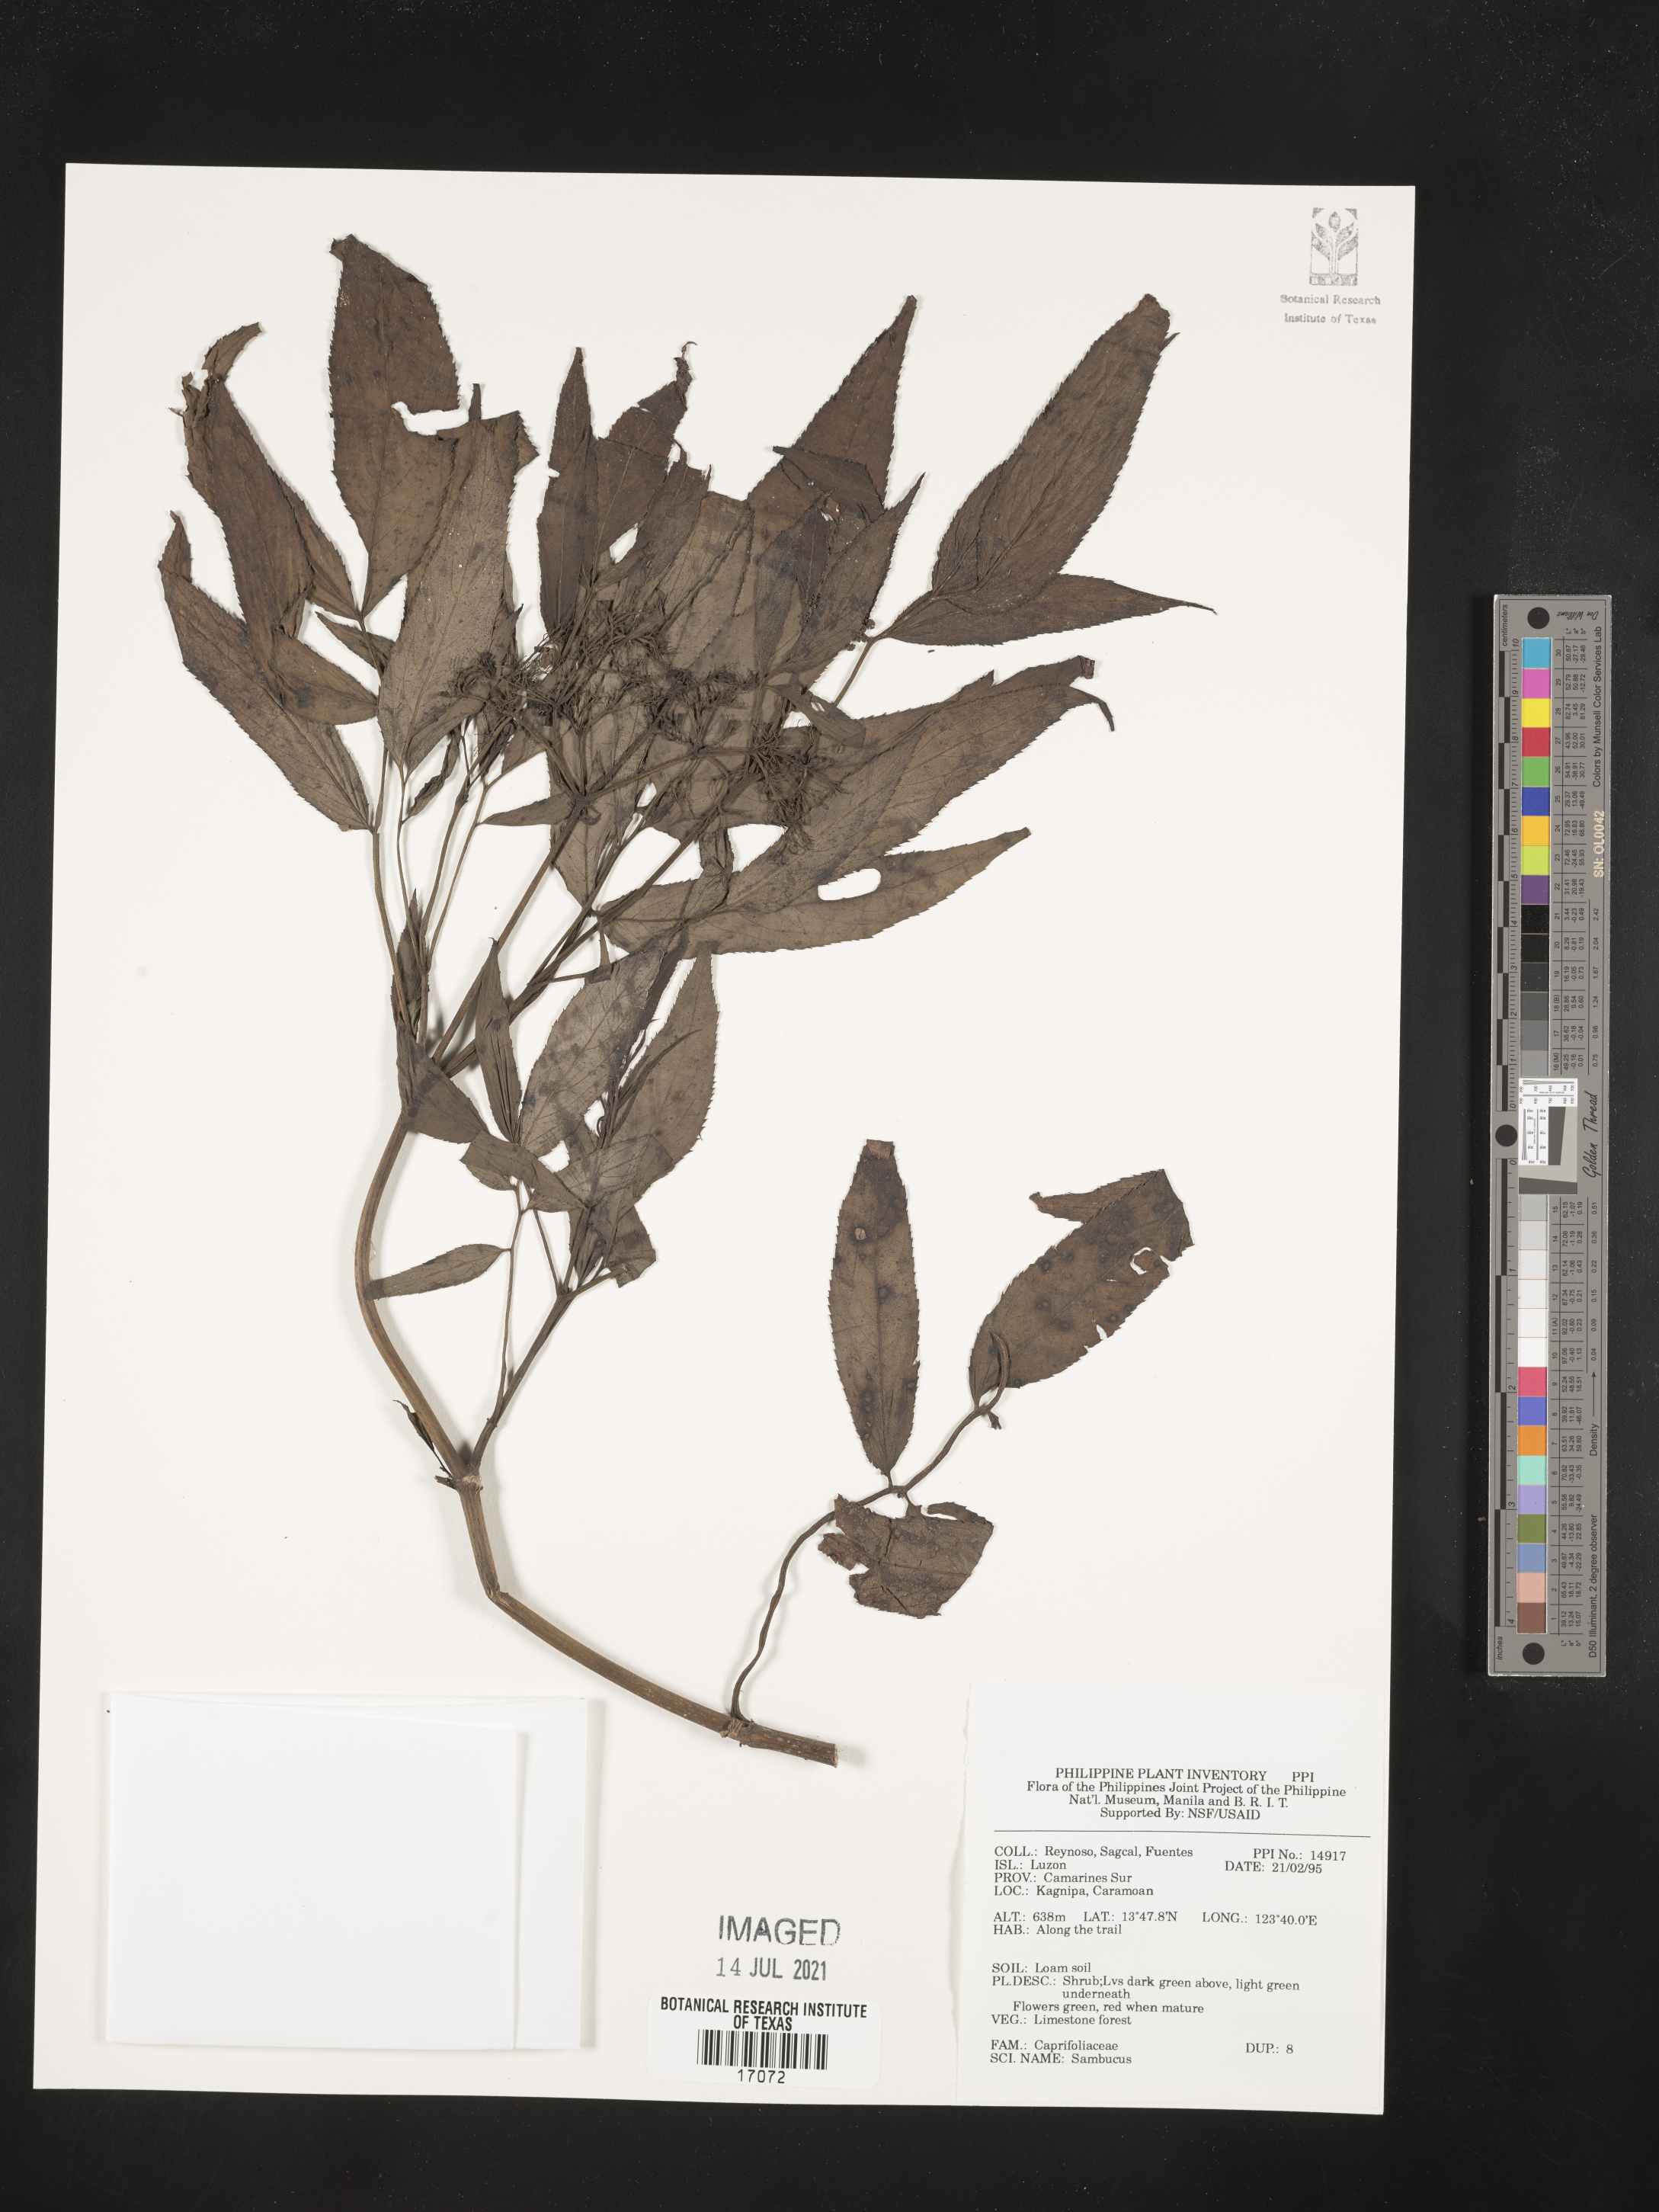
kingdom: Plantae
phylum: Tracheophyta
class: Magnoliopsida
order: Dipsacales
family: Viburnaceae
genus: Sambucus
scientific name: Sambucus
